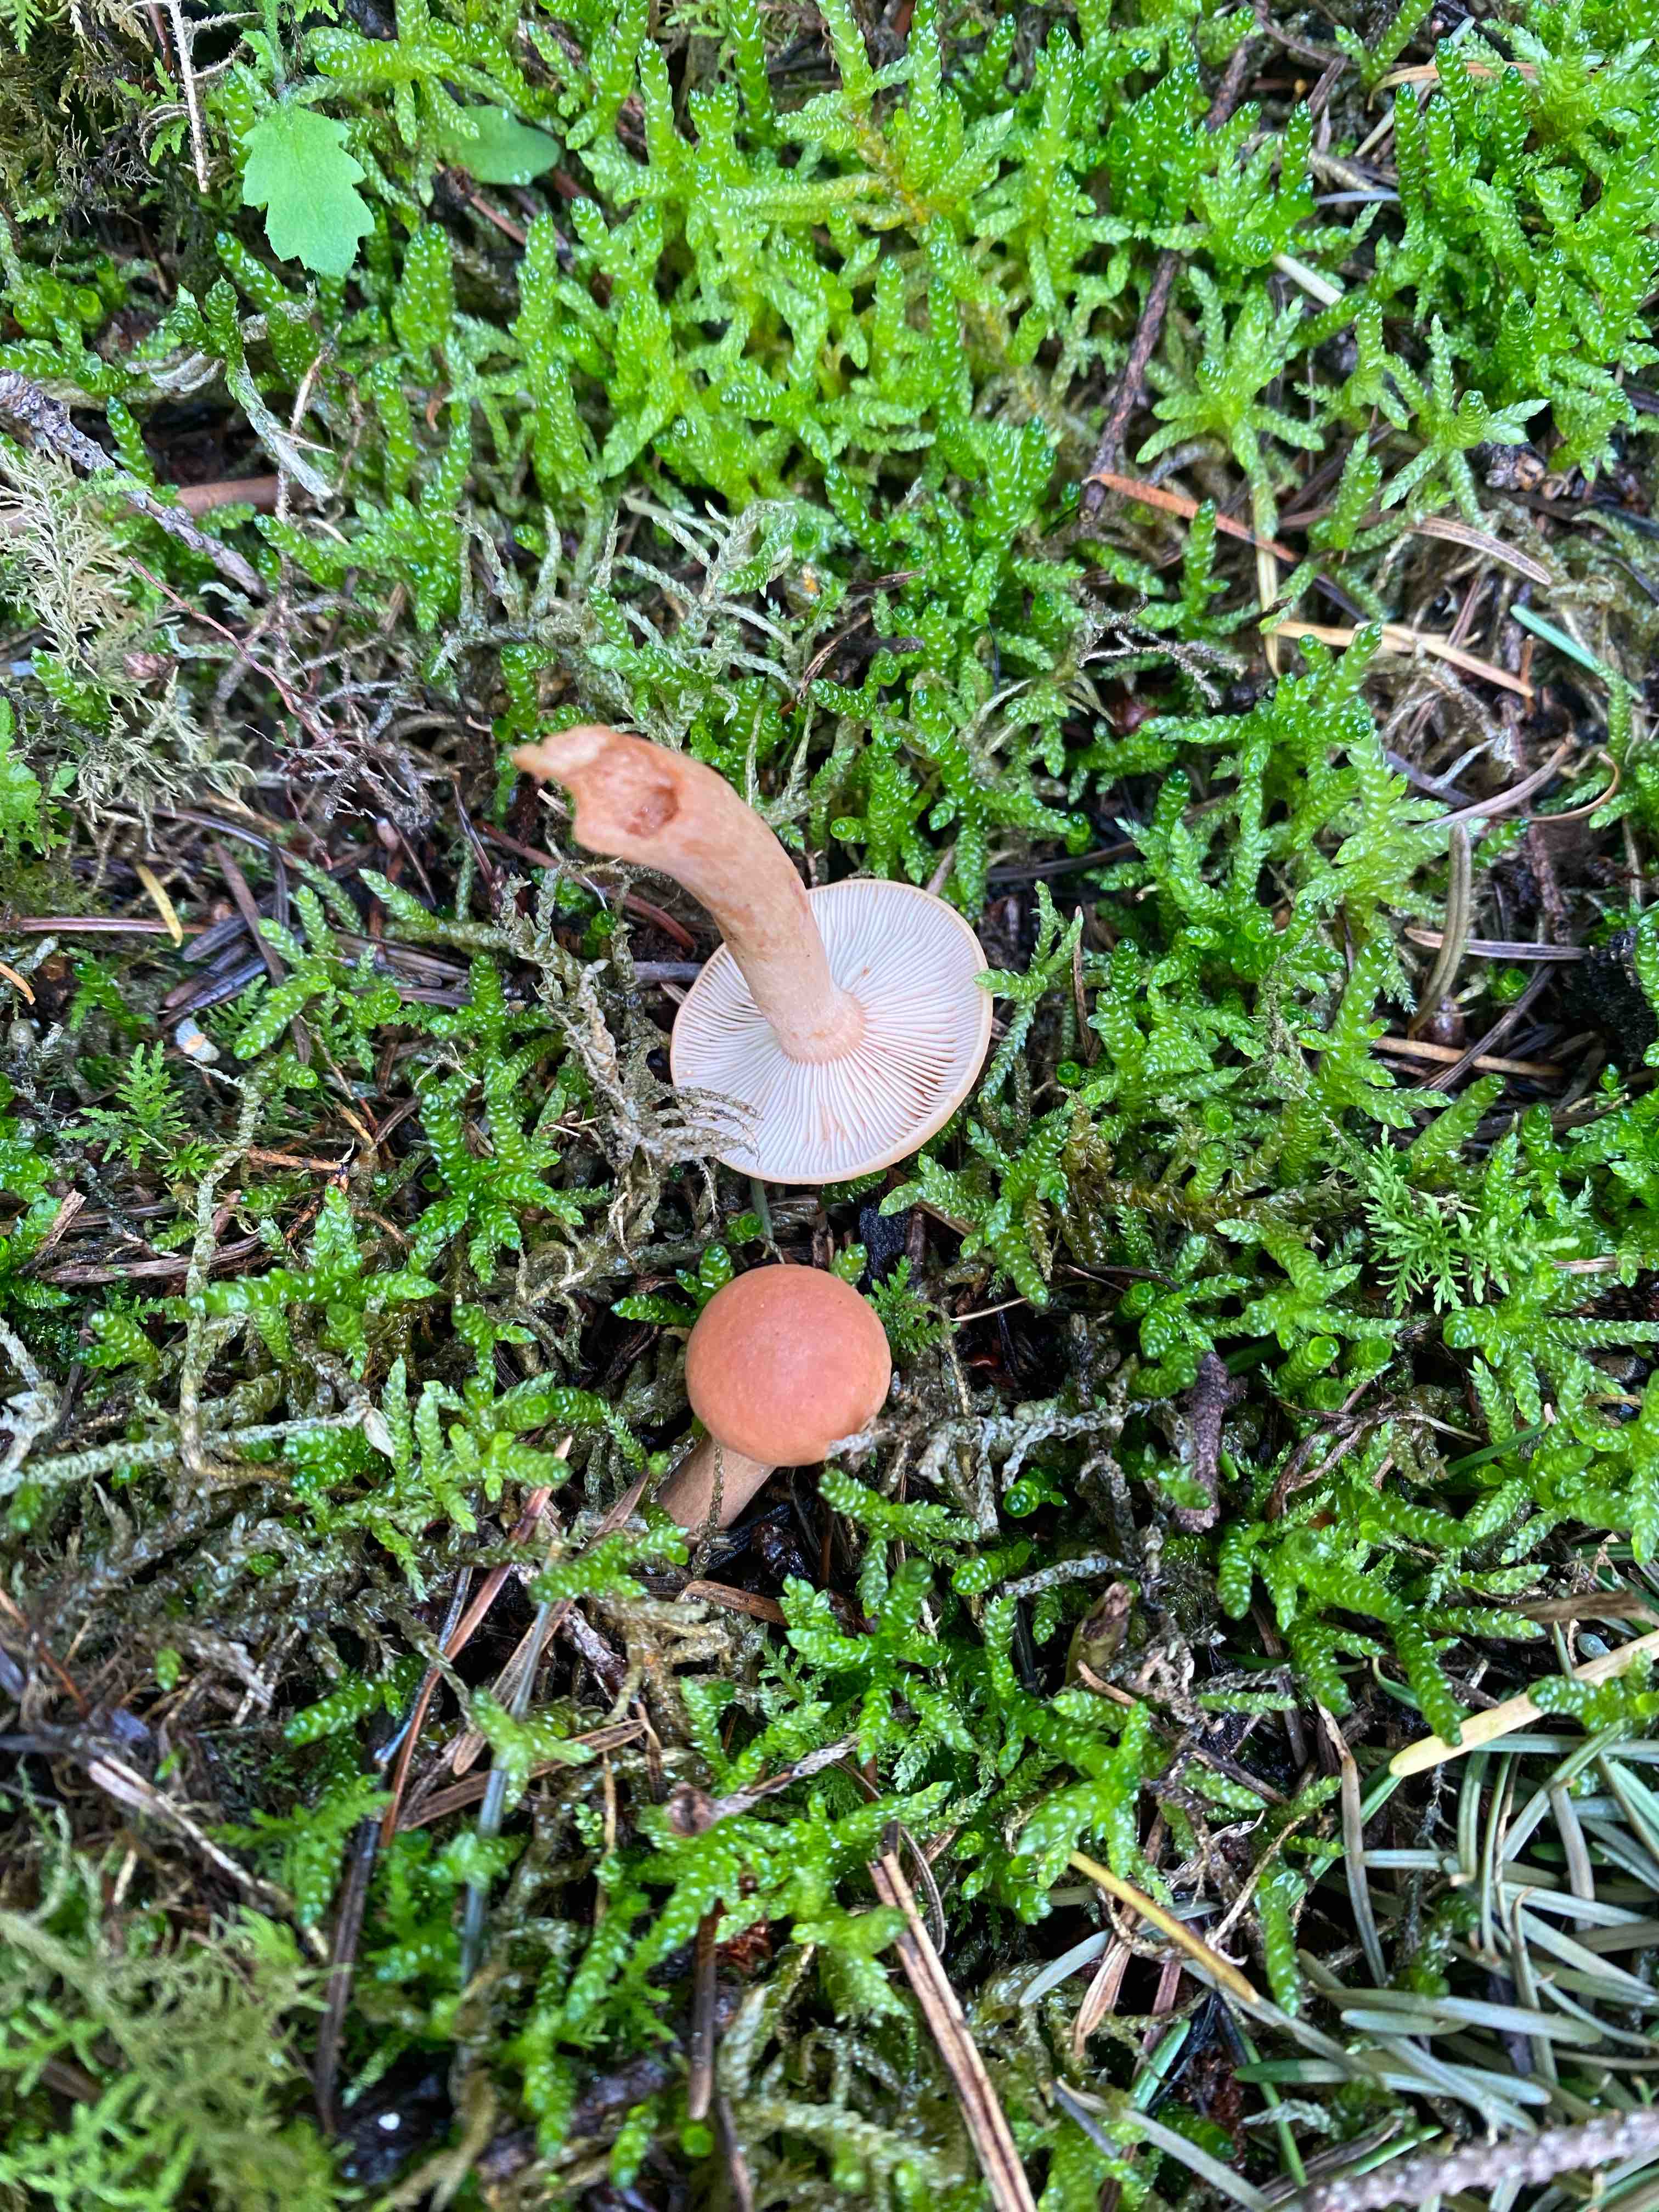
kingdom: Fungi
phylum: Basidiomycota
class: Agaricomycetes
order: Russulales
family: Russulaceae
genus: Lactarius
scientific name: Lactarius tabidus
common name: rynket mælkehat
